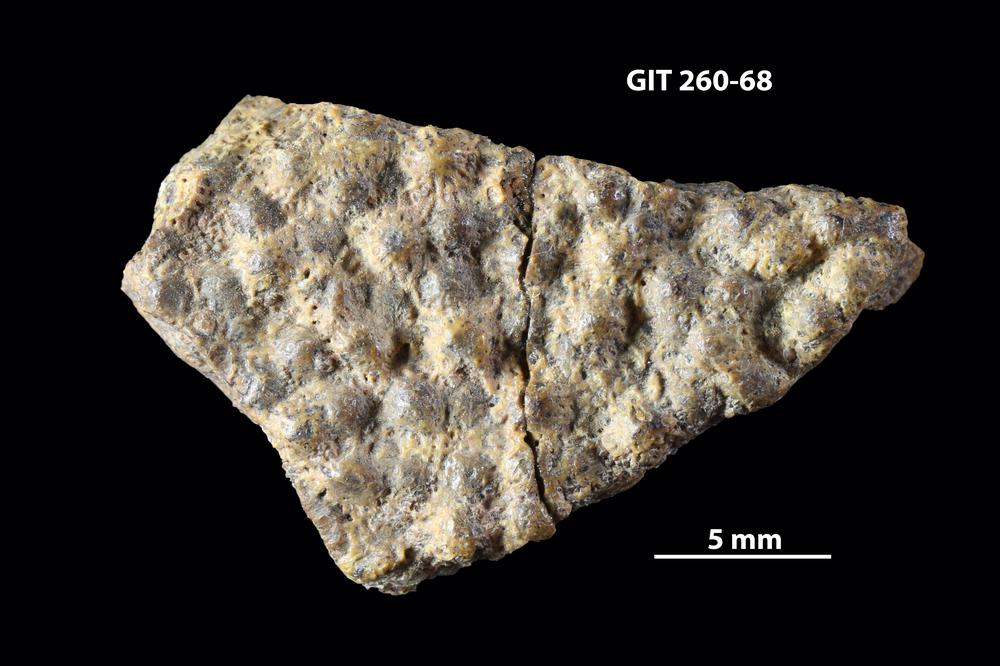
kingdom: Animalia
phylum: Chordata
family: Homostiidae
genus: Homostius
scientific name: Homostius
